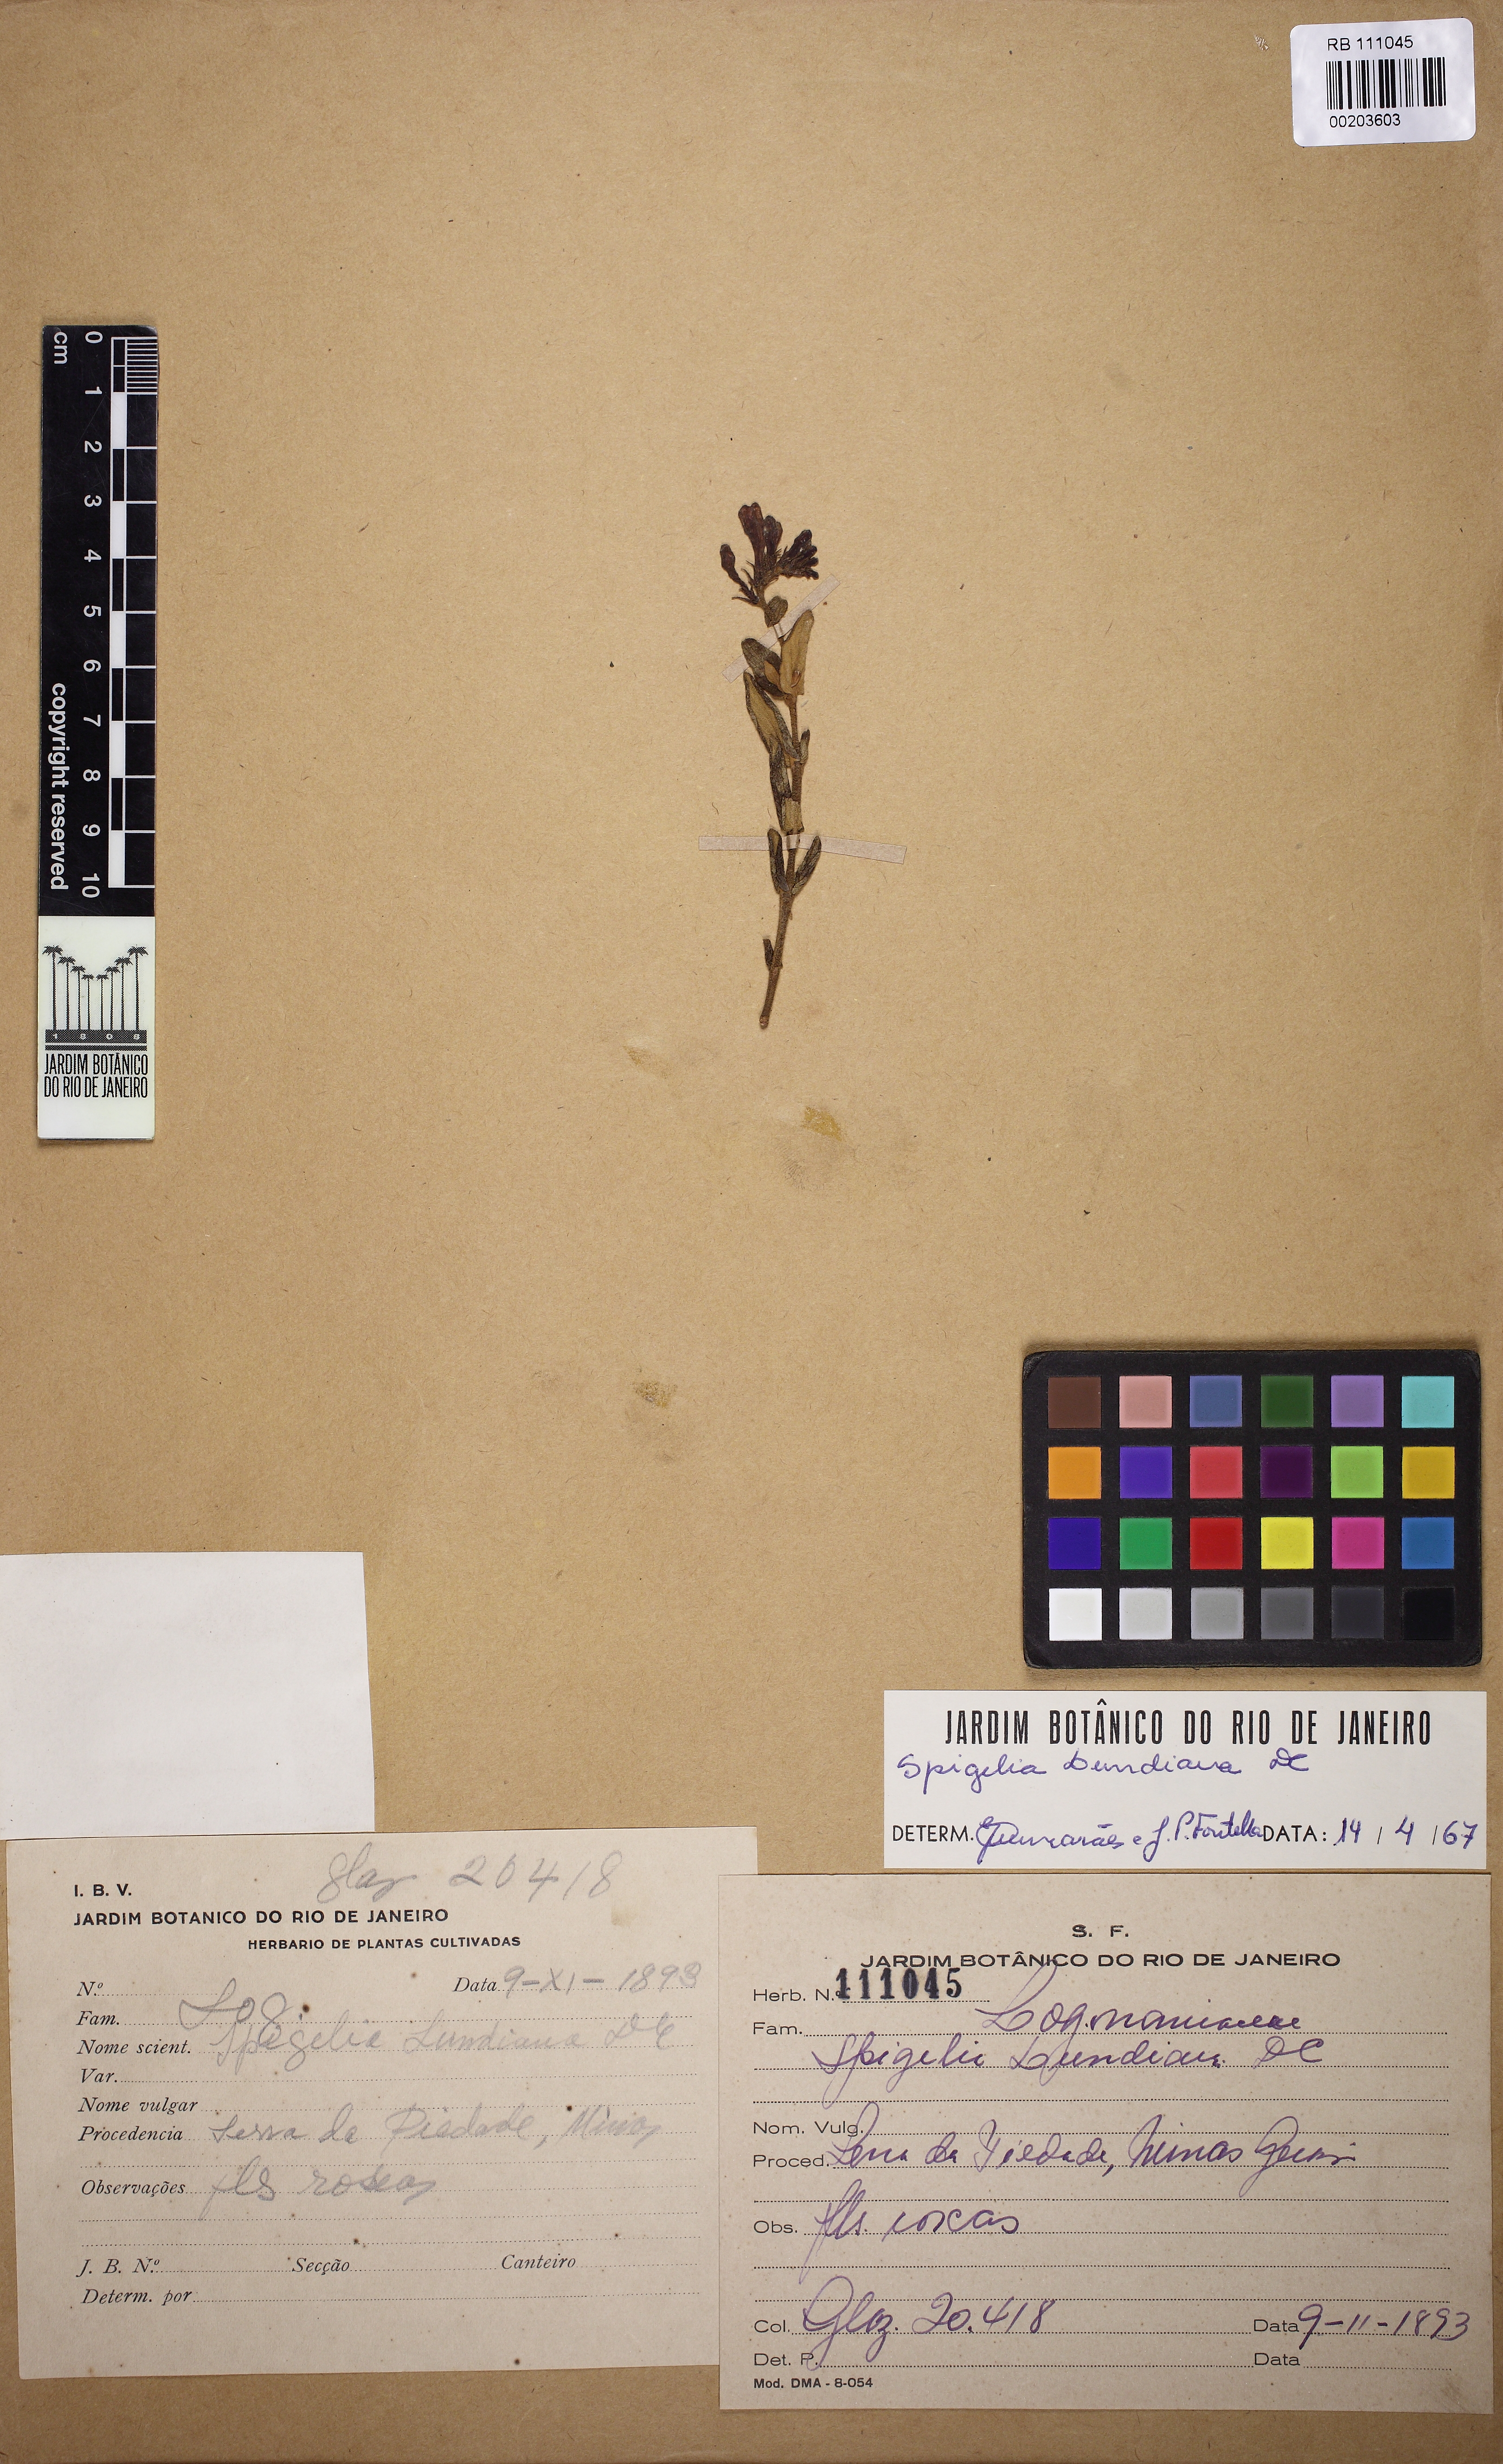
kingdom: Plantae
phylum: Tracheophyta
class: Magnoliopsida
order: Gentianales
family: Loganiaceae
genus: Spigelia
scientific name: Spigelia lundiana
